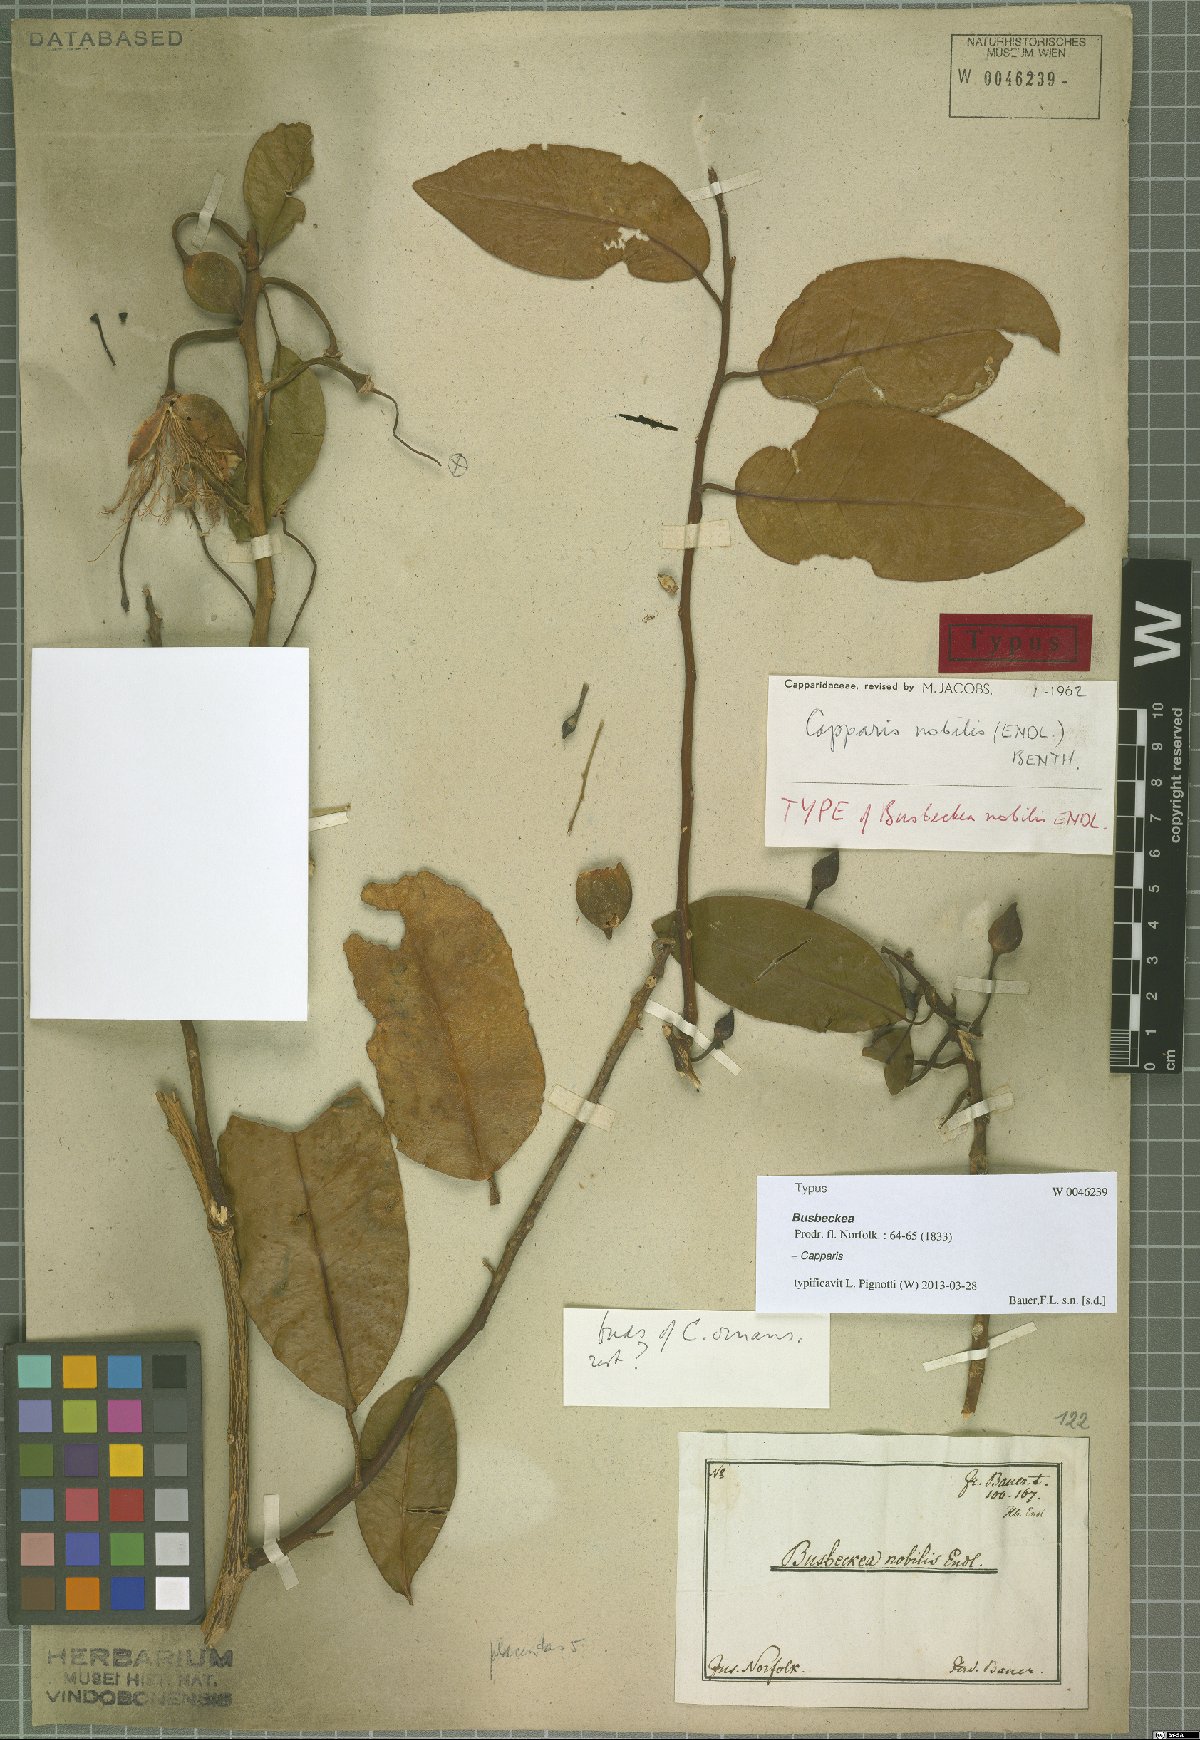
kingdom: Plantae
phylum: Tracheophyta
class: Magnoliopsida
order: Brassicales
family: Capparaceae
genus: Capparis
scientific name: Capparis nobilis
